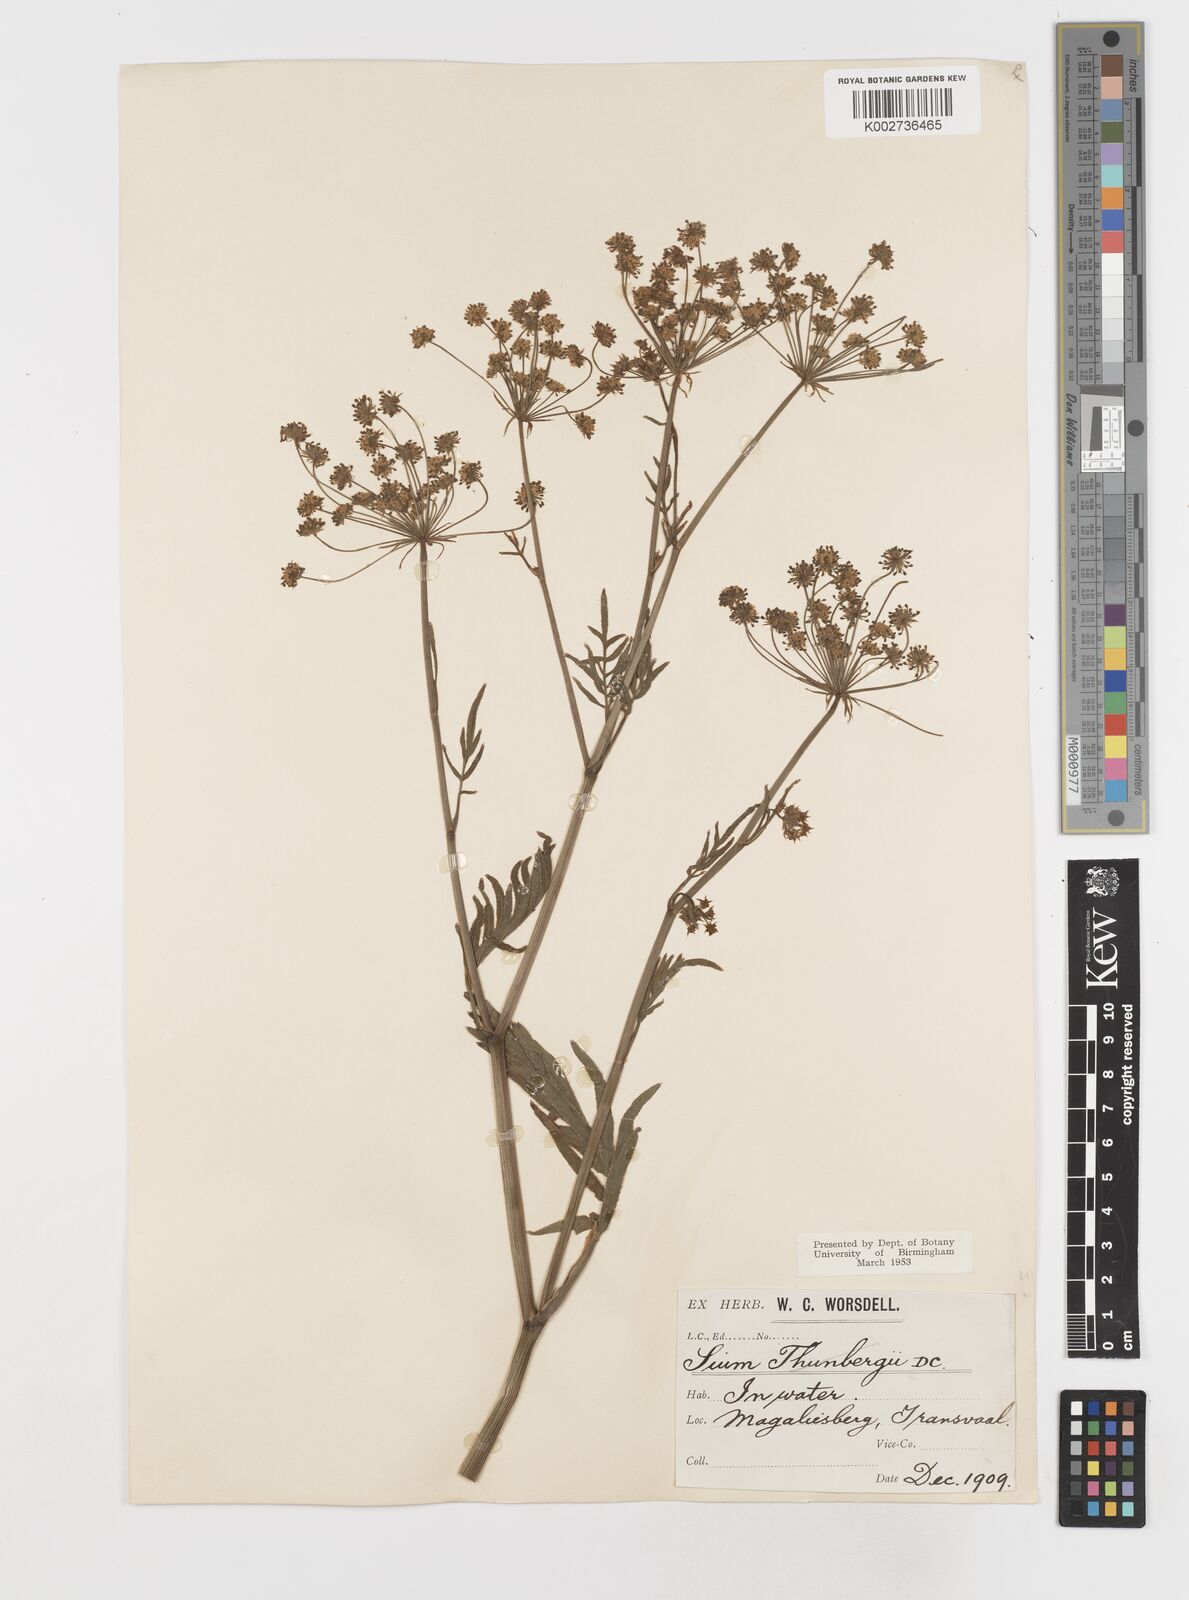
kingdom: Plantae
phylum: Tracheophyta
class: Magnoliopsida
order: Apiales
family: Apiaceae
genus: Berula
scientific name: Berula repanda
